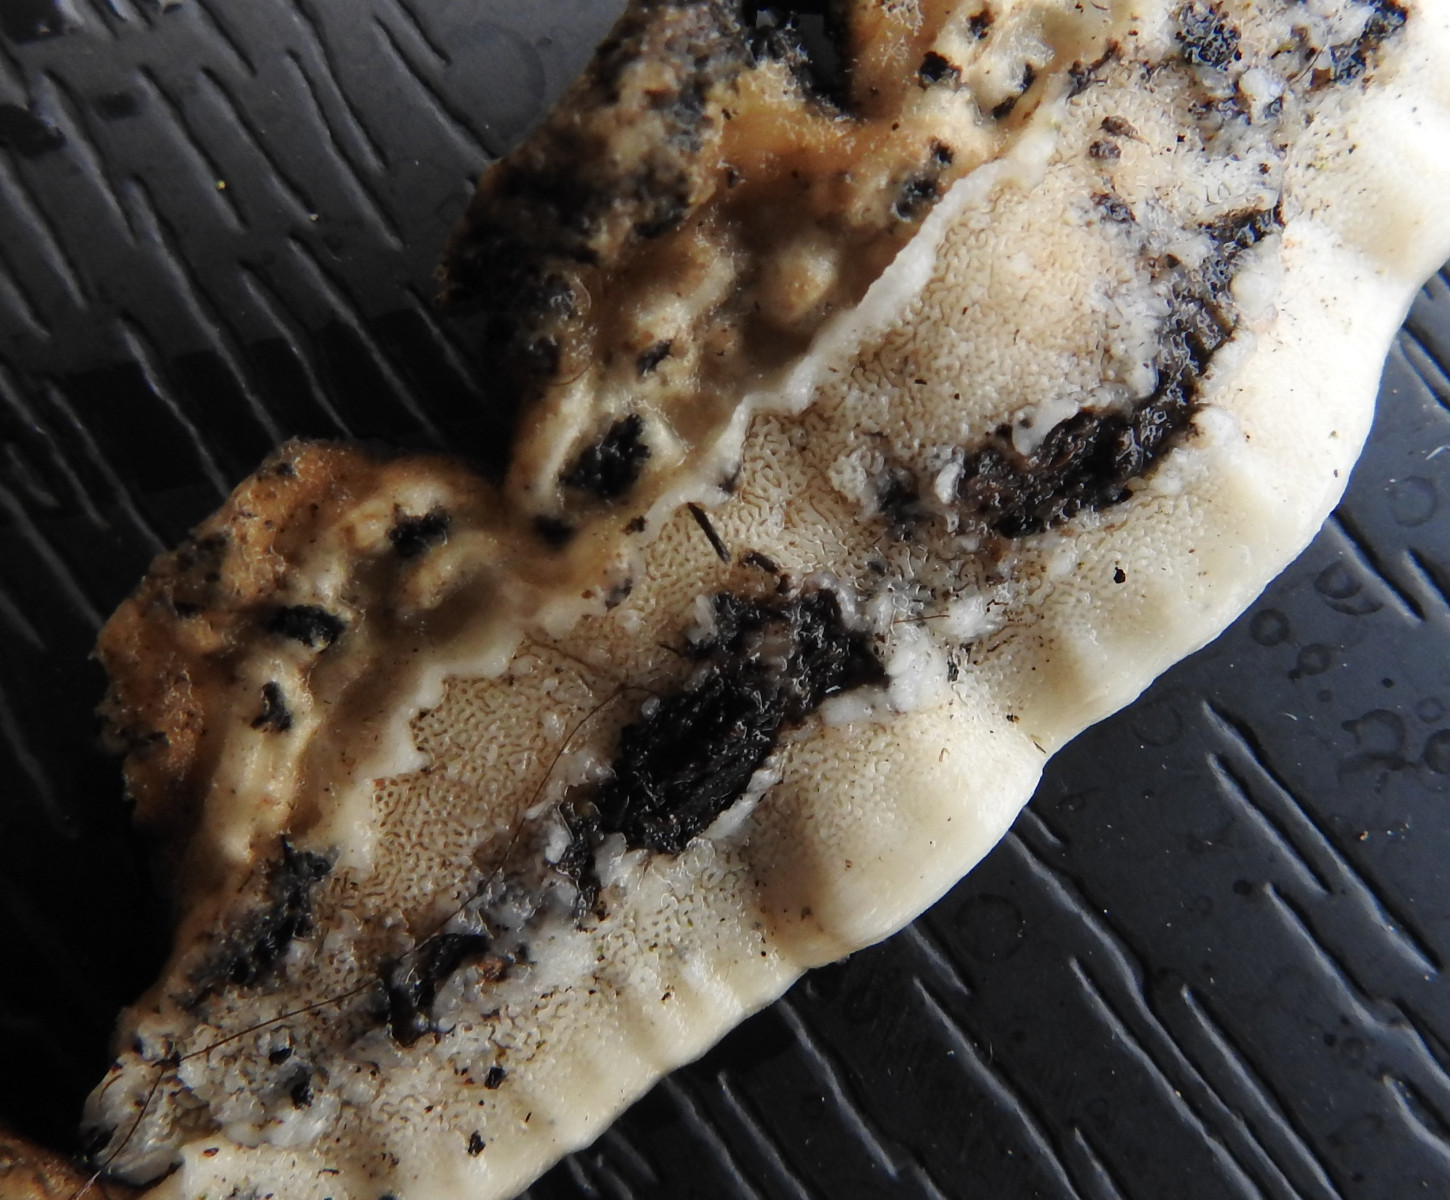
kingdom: Fungi
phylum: Basidiomycota
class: Agaricomycetes
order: Polyporales
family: Polyporaceae
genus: Trametes
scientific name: Trametes
